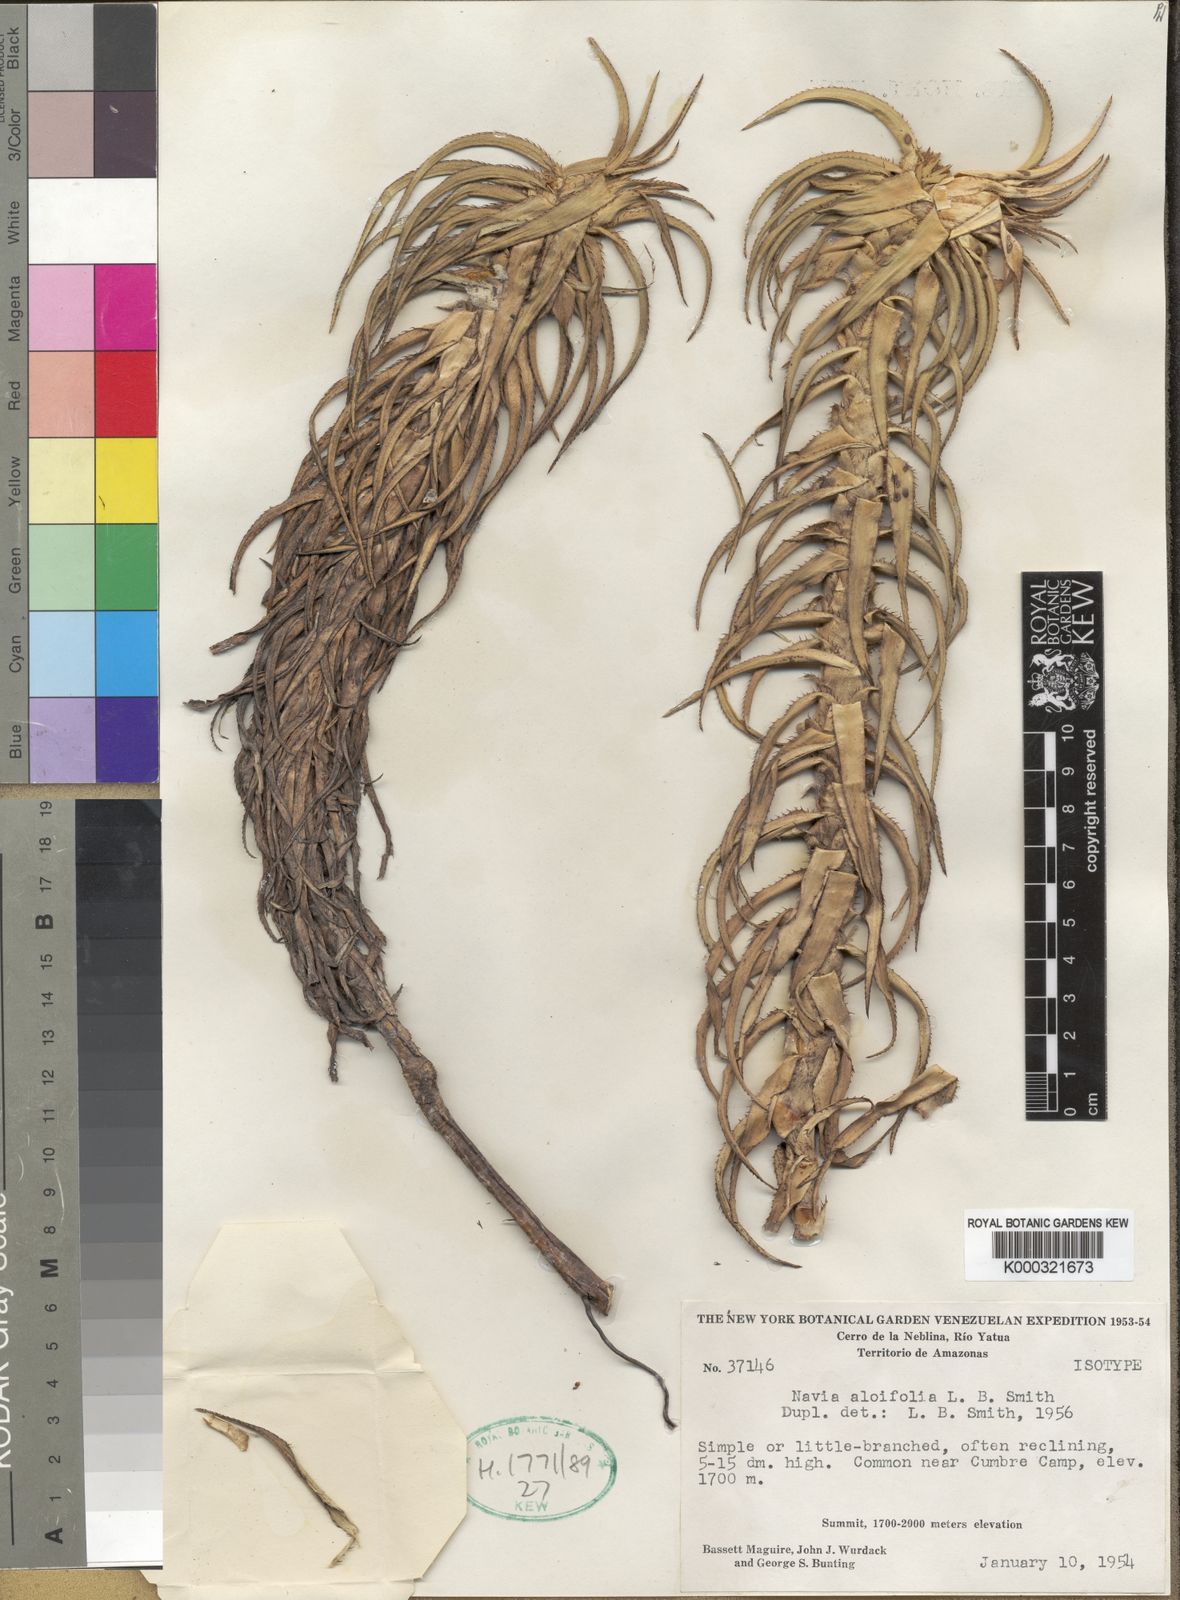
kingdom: Plantae
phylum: Tracheophyta
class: Liliopsida
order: Poales
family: Bromeliaceae
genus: Navia
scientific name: Navia aloifolia
